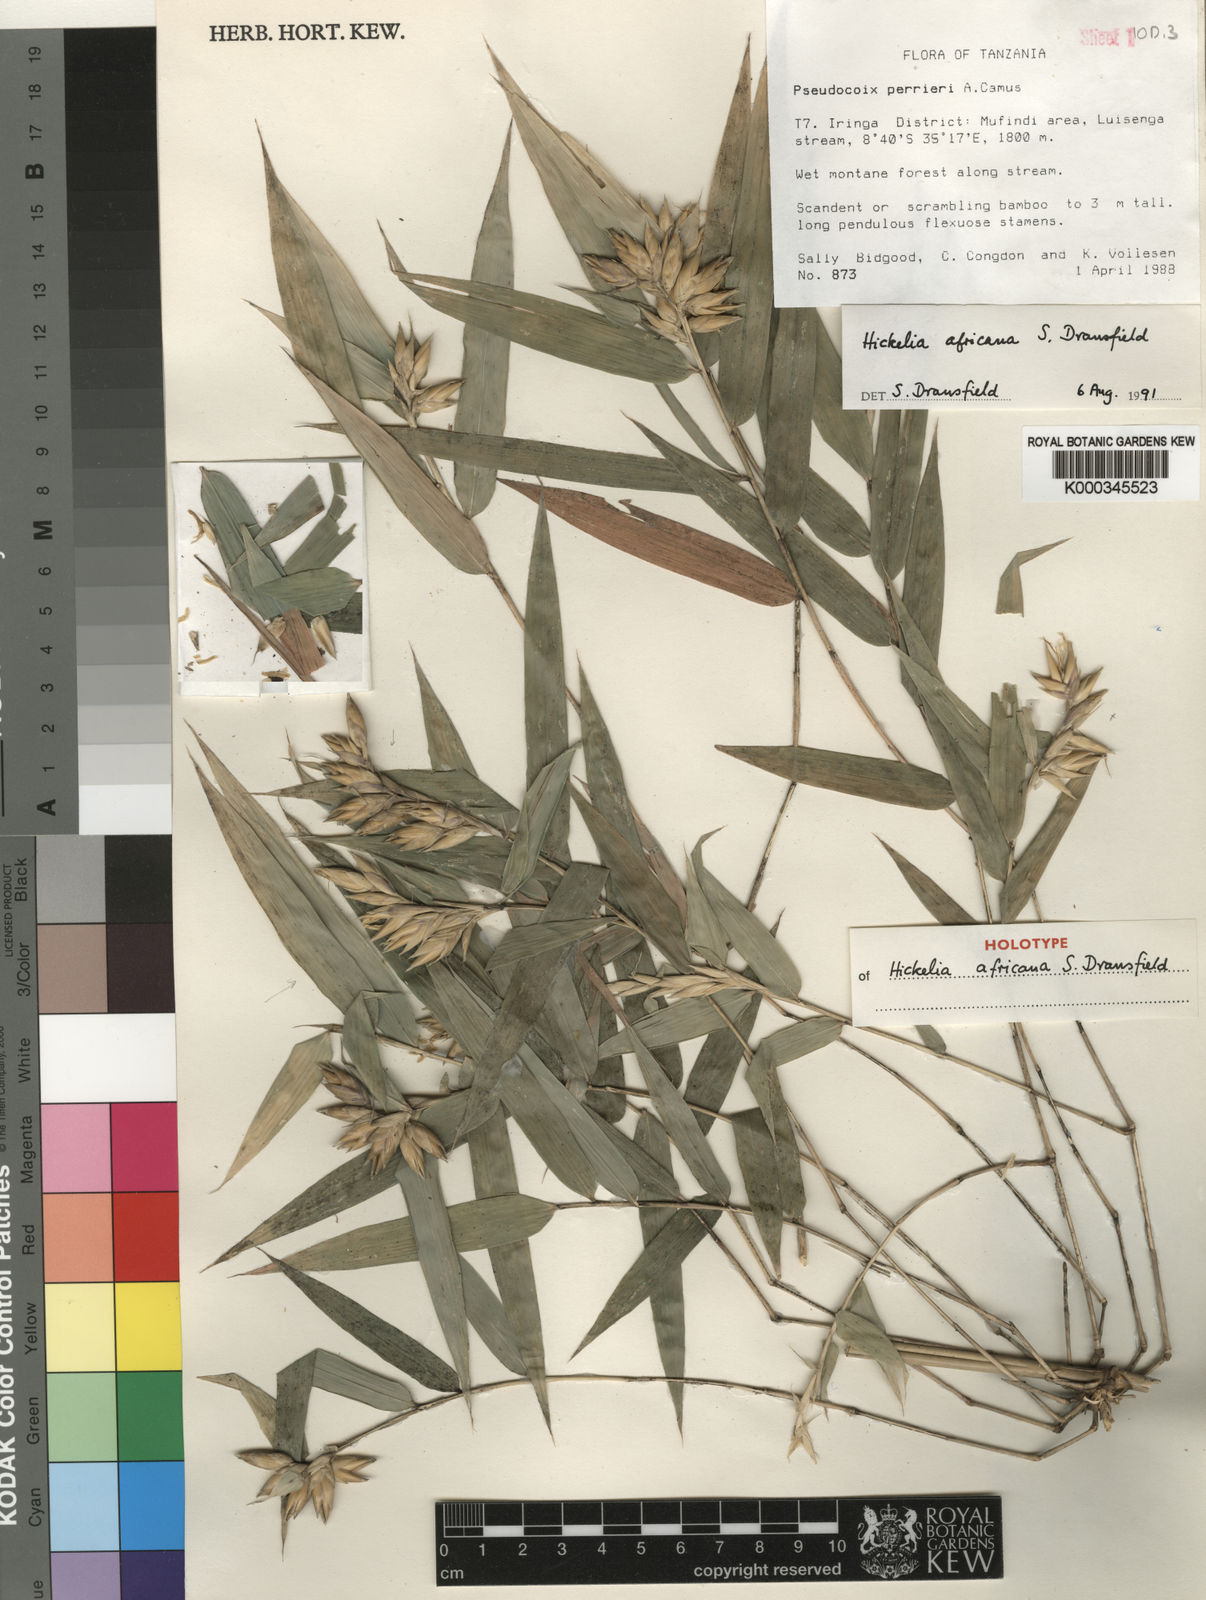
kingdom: Plantae
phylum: Tracheophyta
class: Liliopsida
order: Poales
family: Poaceae
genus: Hickelia
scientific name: Hickelia africana
